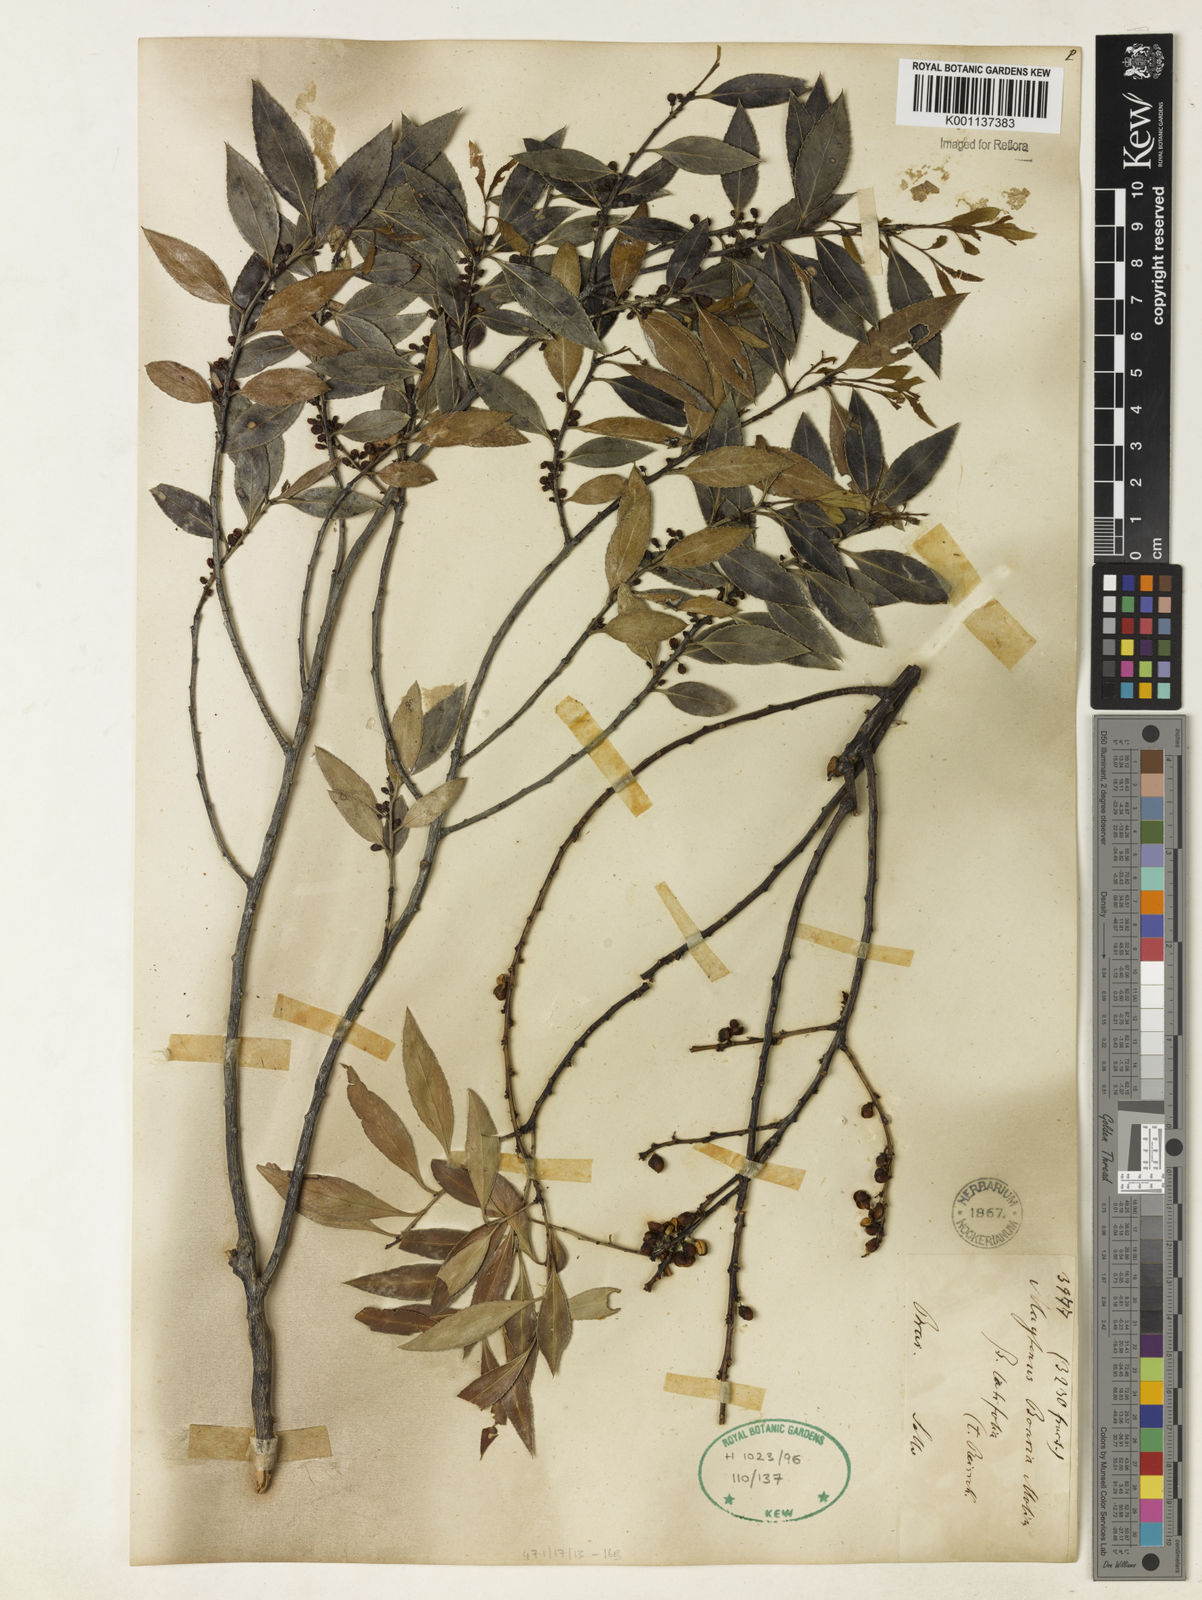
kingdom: Plantae
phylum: Tracheophyta
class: Magnoliopsida
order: Celastrales
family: Celastraceae
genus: Maytenus
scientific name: Maytenus boaria
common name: Mayten
